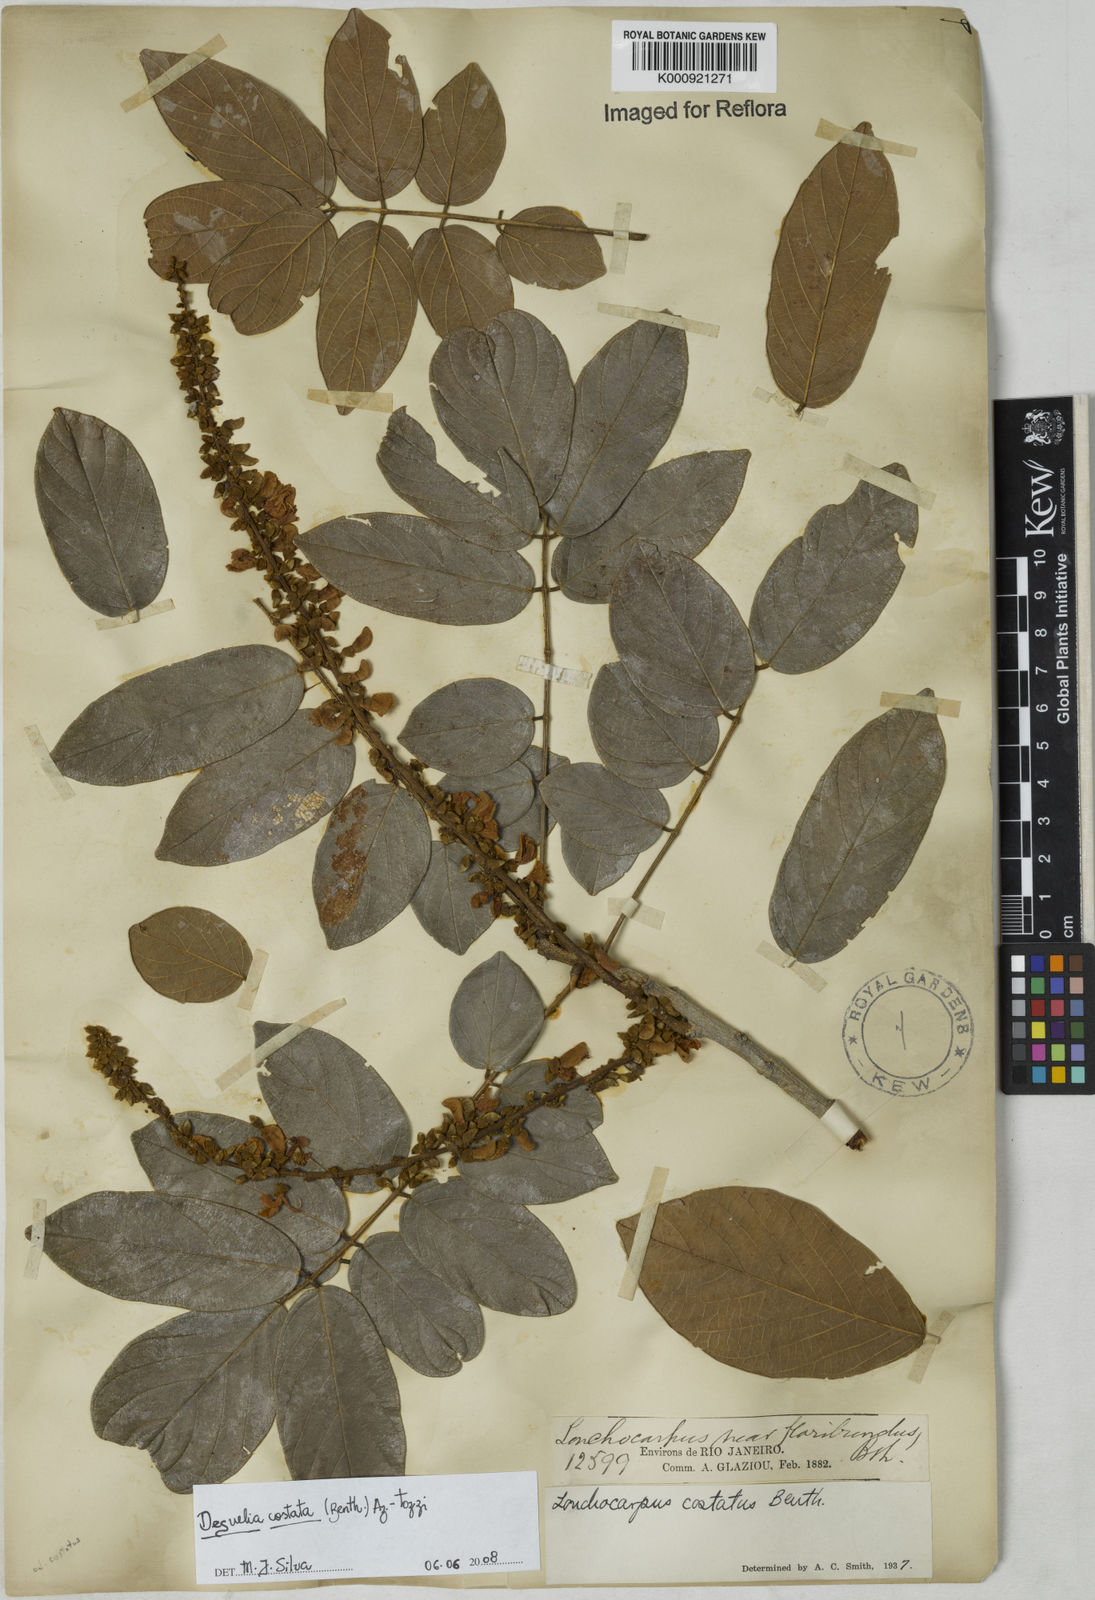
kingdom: Plantae
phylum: Tracheophyta
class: Magnoliopsida
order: Fabales
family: Fabaceae
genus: Deguelia
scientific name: Deguelia costata
